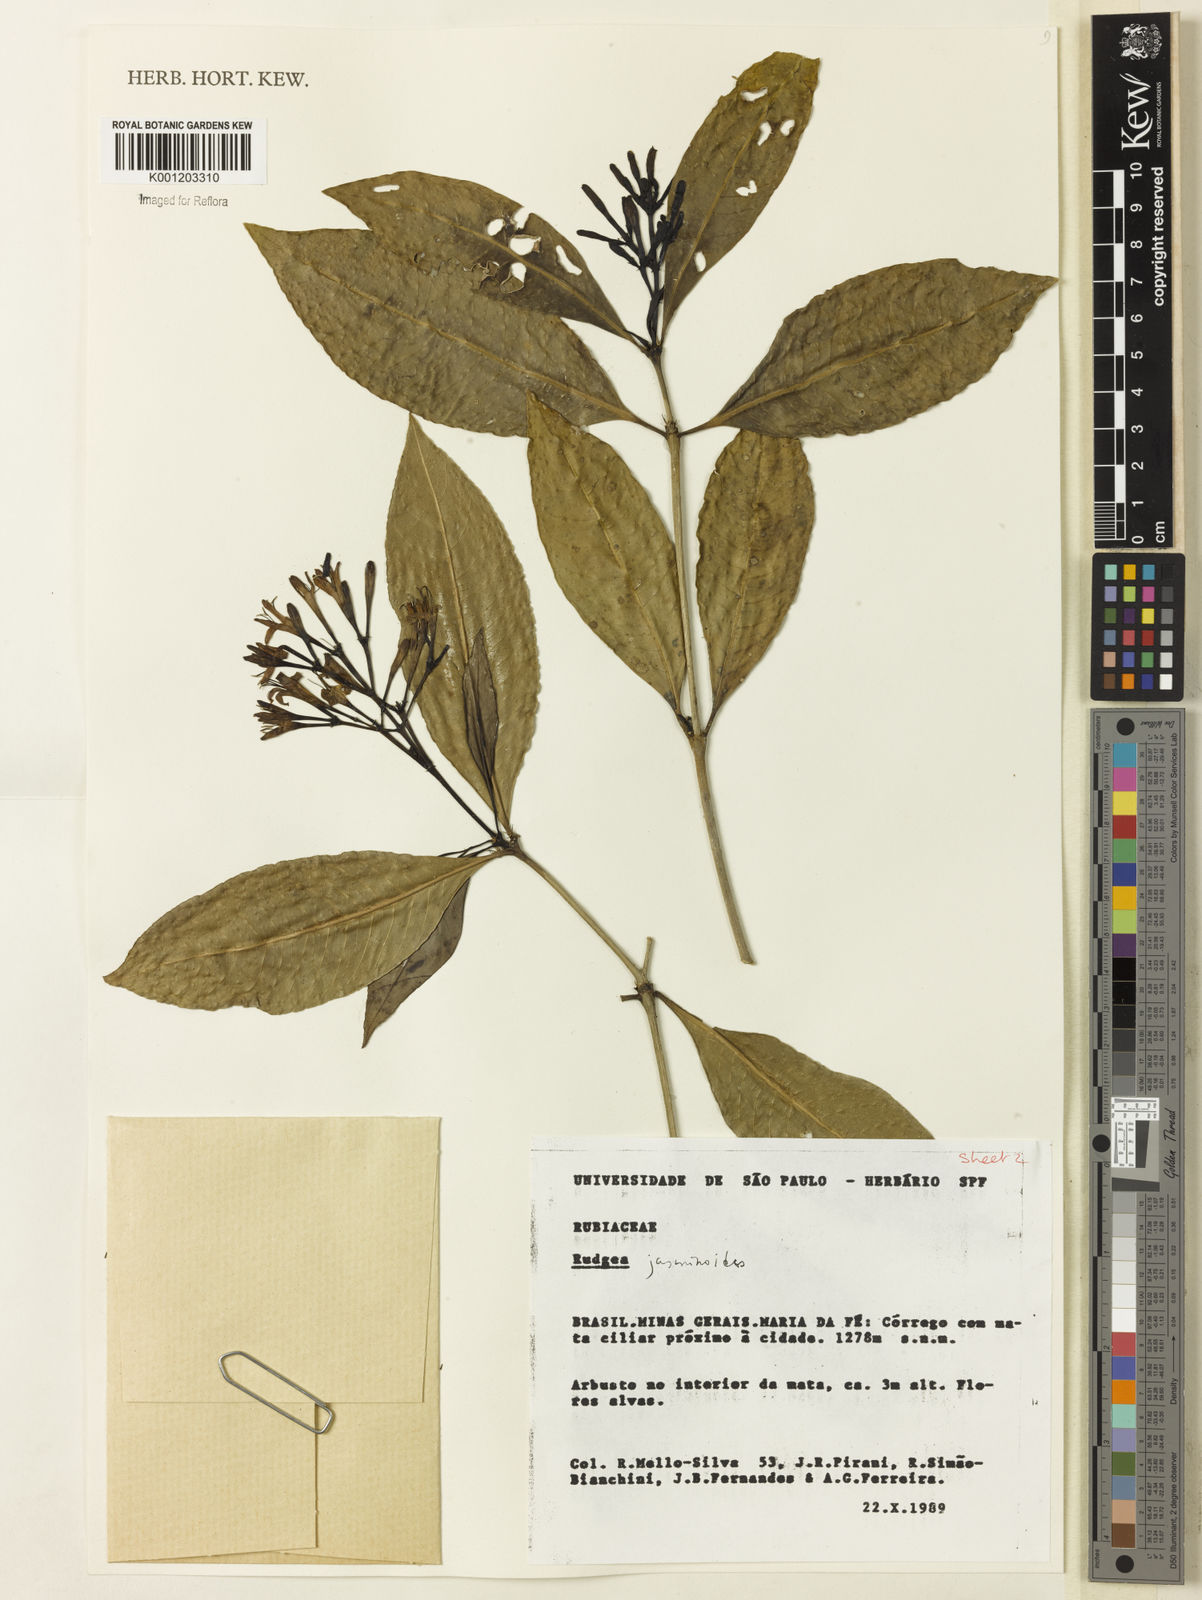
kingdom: Plantae
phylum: Tracheophyta
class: Magnoliopsida
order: Gentianales
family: Rubiaceae
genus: Rudgea
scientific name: Rudgea
